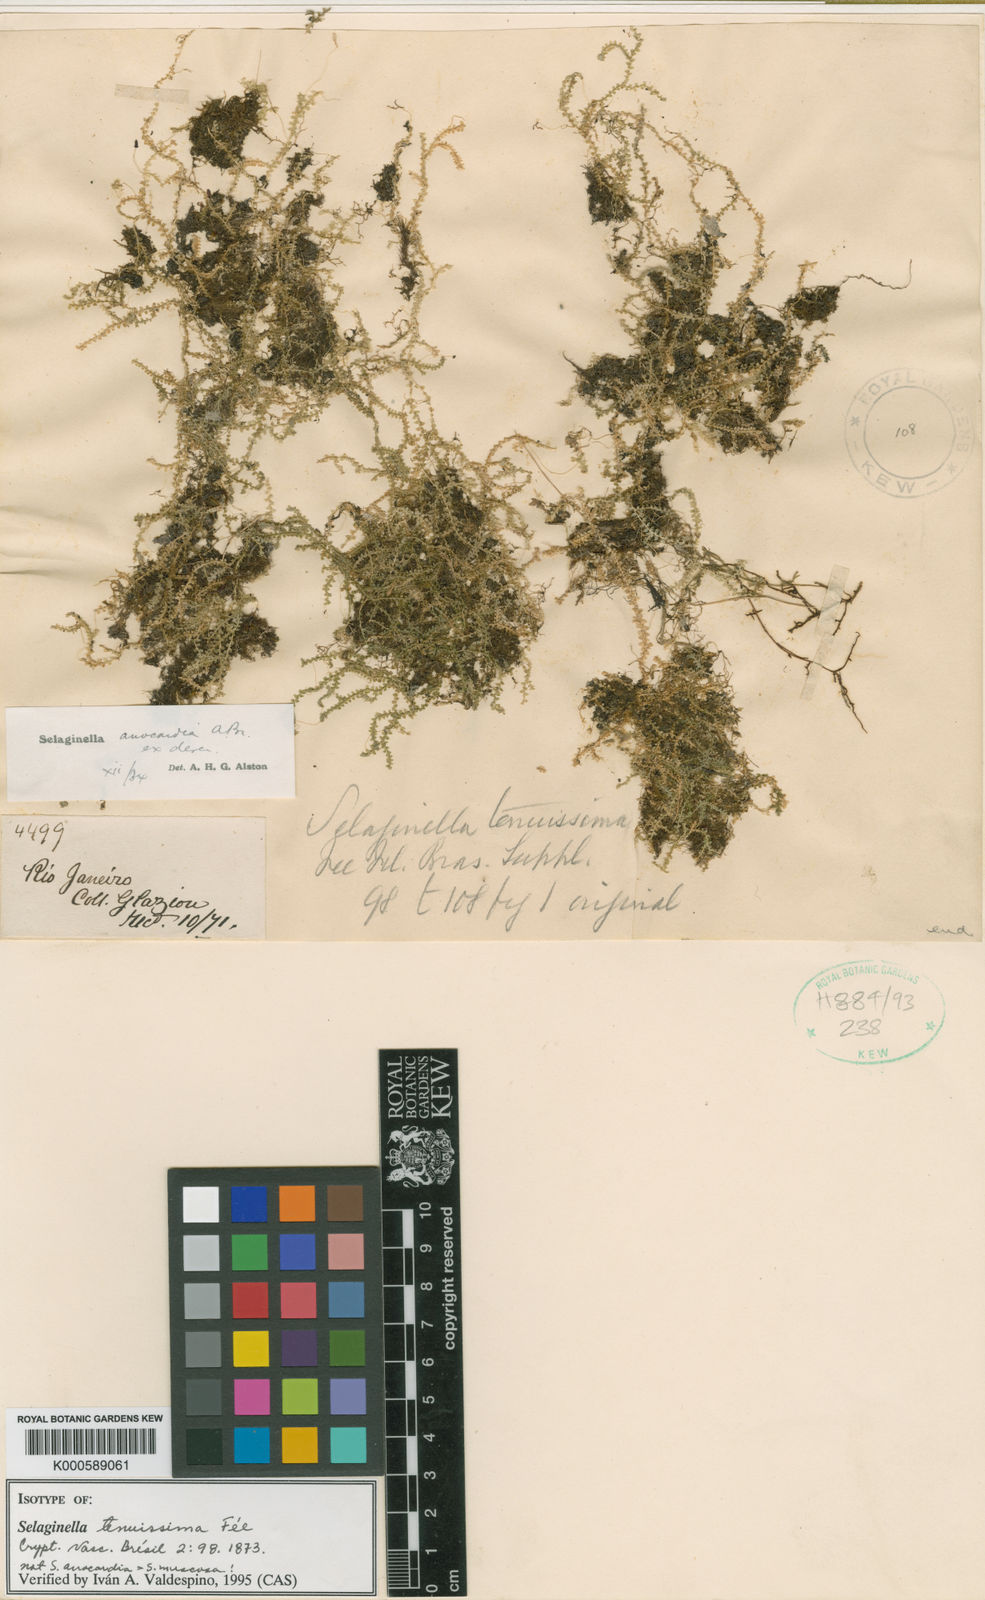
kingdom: Plantae
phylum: Tracheophyta
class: Lycopodiopsida
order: Selaginellales
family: Selaginellaceae
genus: Selaginella
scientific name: Selaginella
